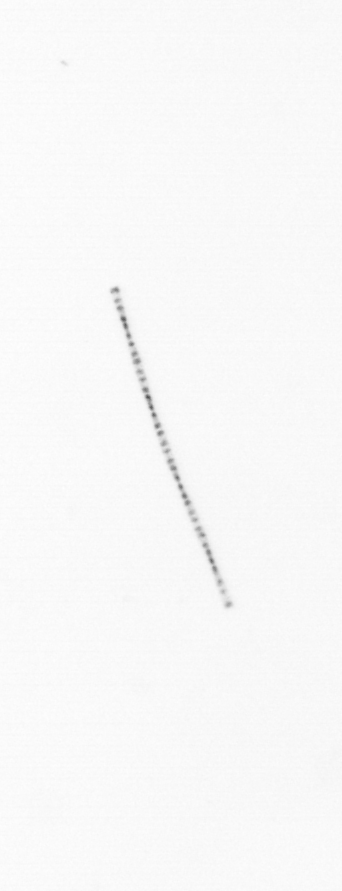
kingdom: Chromista
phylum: Ochrophyta
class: Bacillariophyceae
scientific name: Bacillariophyceae
